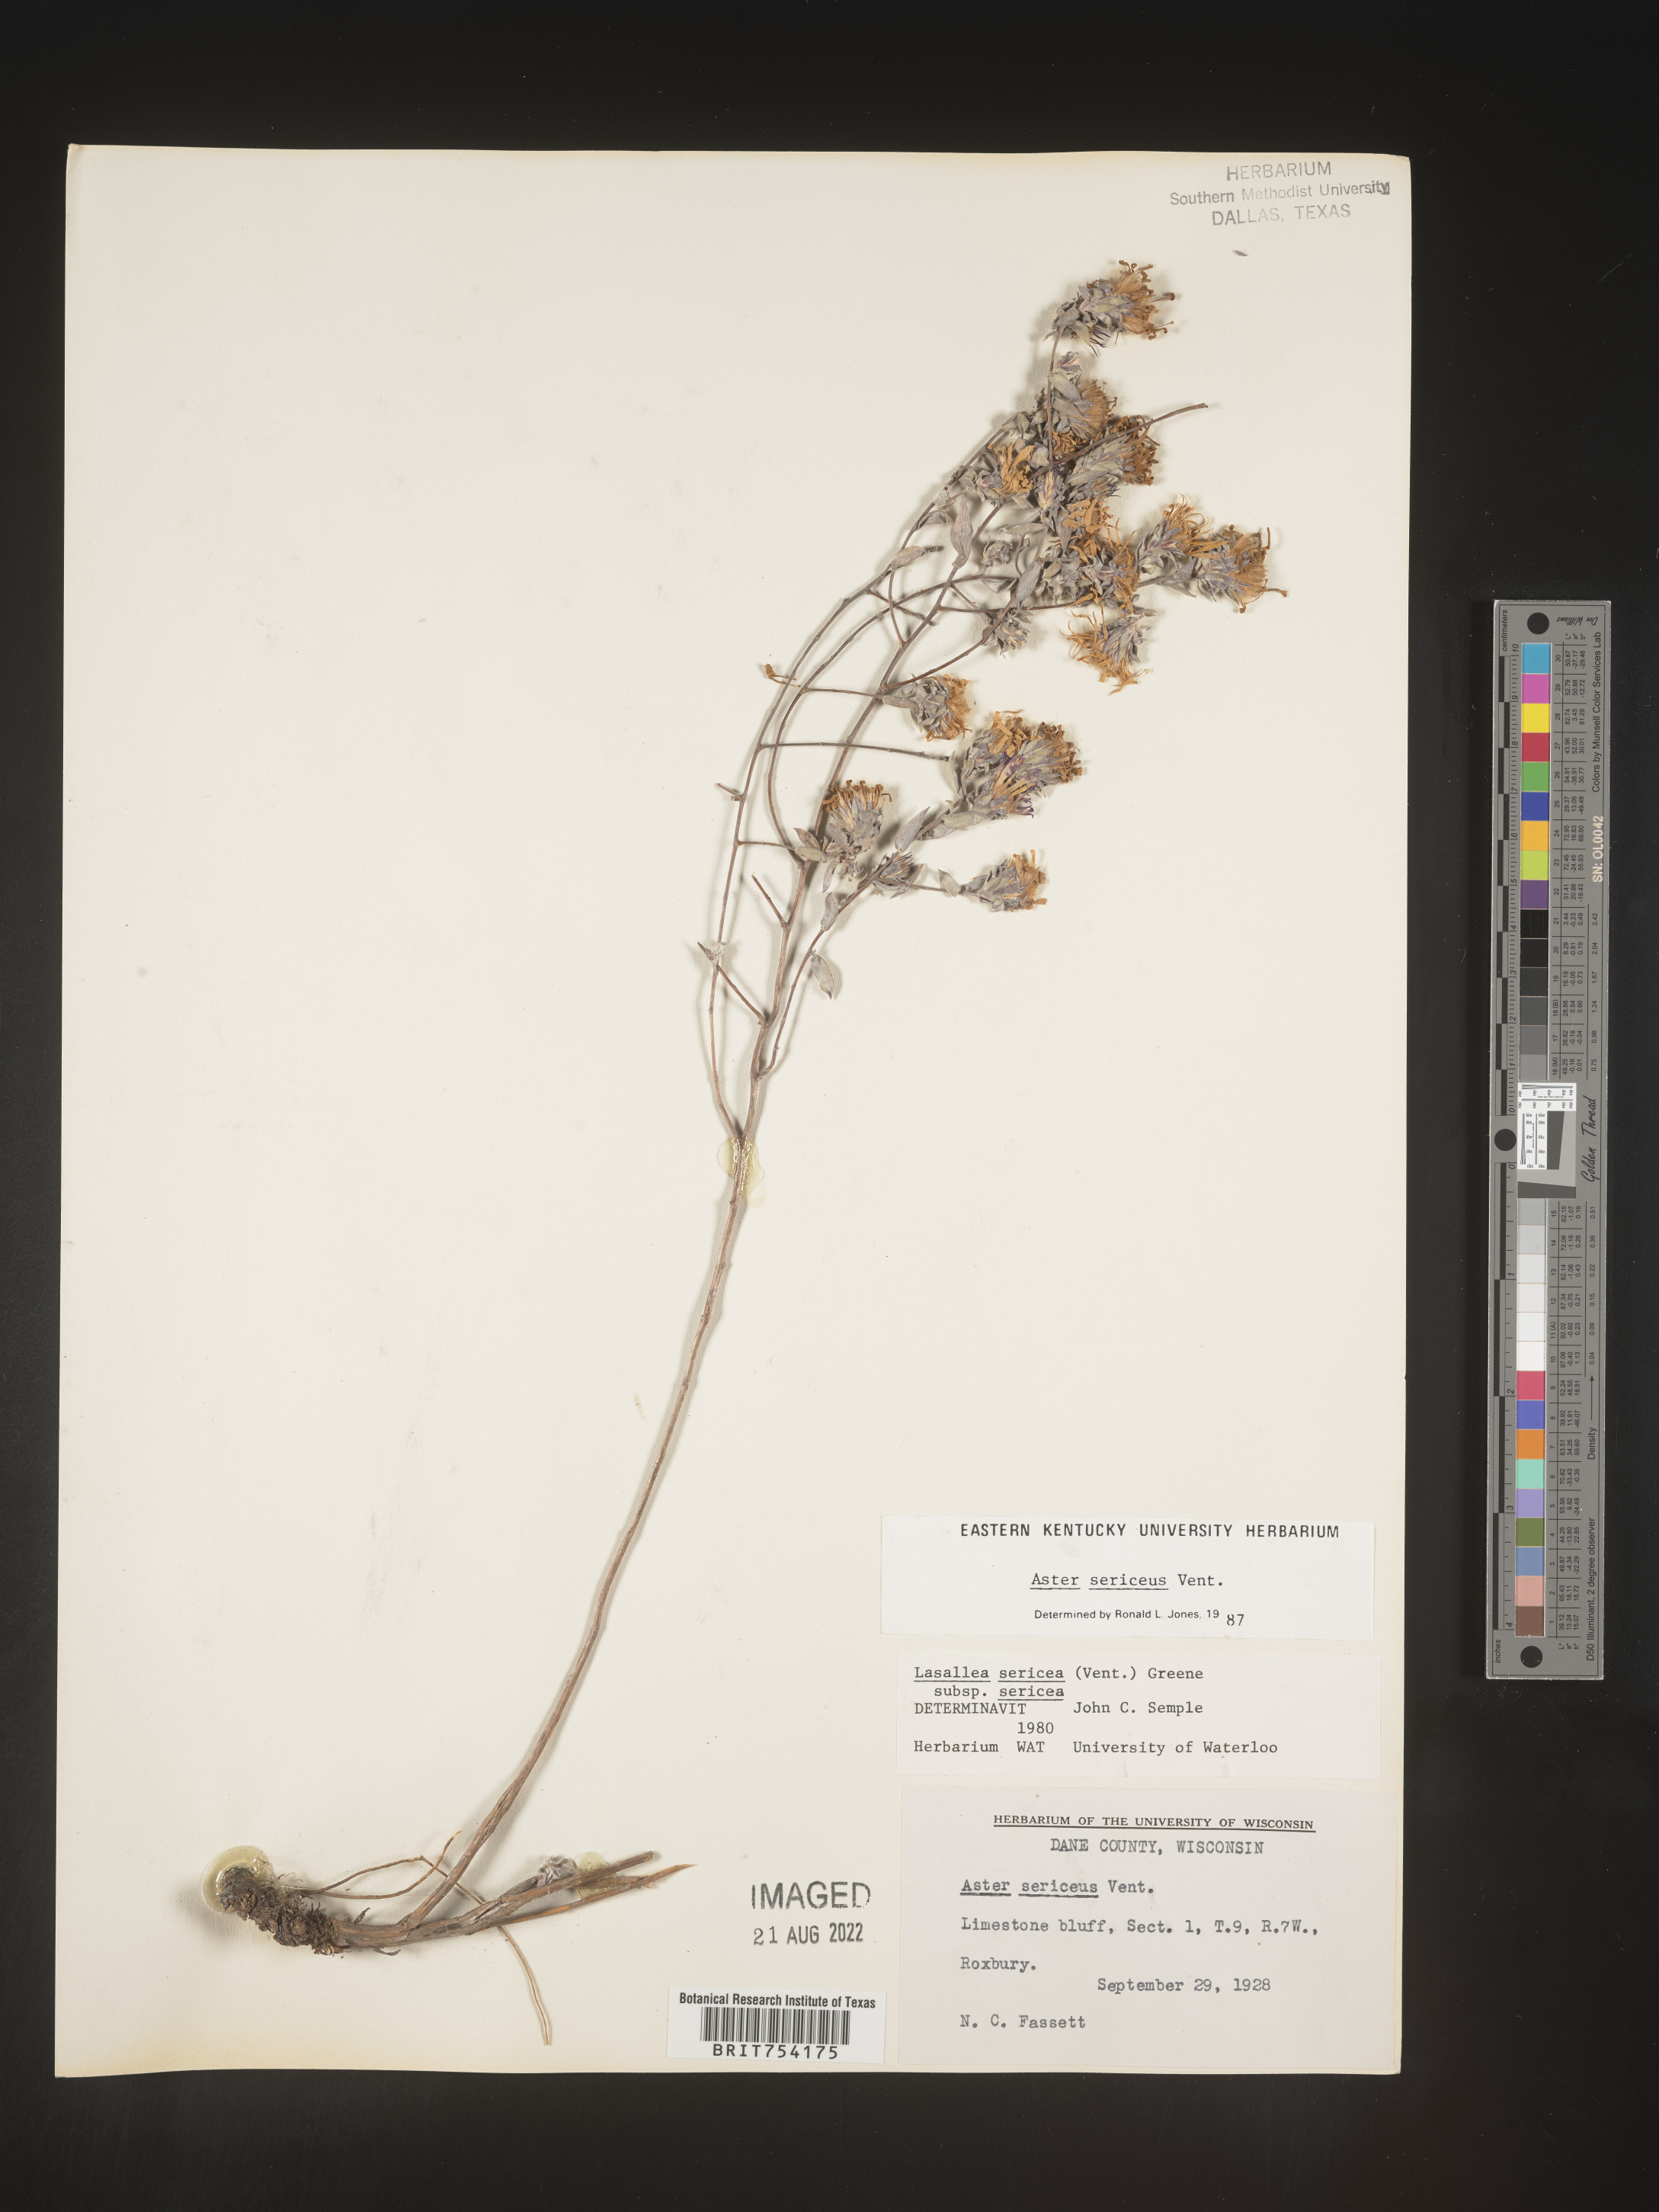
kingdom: Plantae
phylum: Tracheophyta
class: Magnoliopsida
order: Asterales
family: Asteraceae
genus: Symphyotrichum
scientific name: Symphyotrichum sericeum
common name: Silky aster
